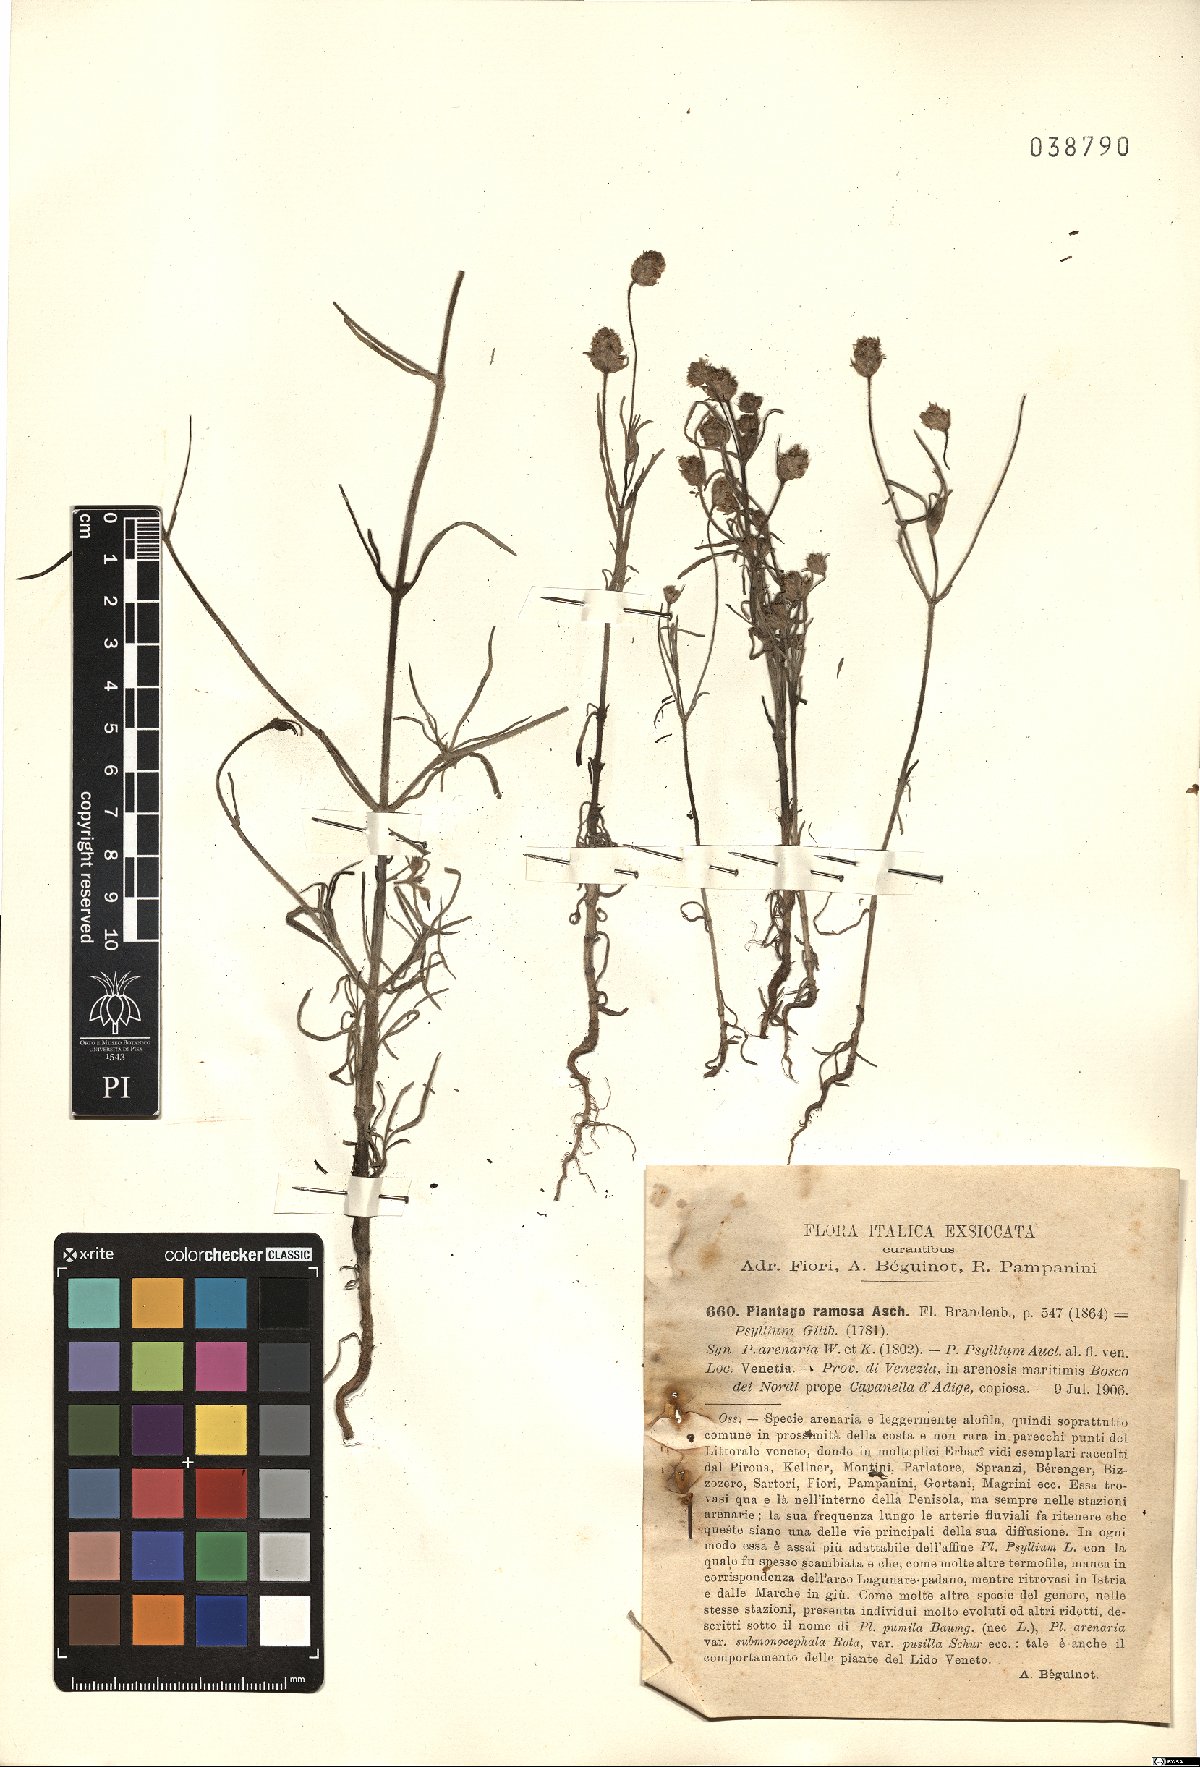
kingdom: Plantae
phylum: Tracheophyta
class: Magnoliopsida
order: Lamiales
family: Plantaginaceae
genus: Plantago
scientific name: Plantago arenaria
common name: Branched plantain
